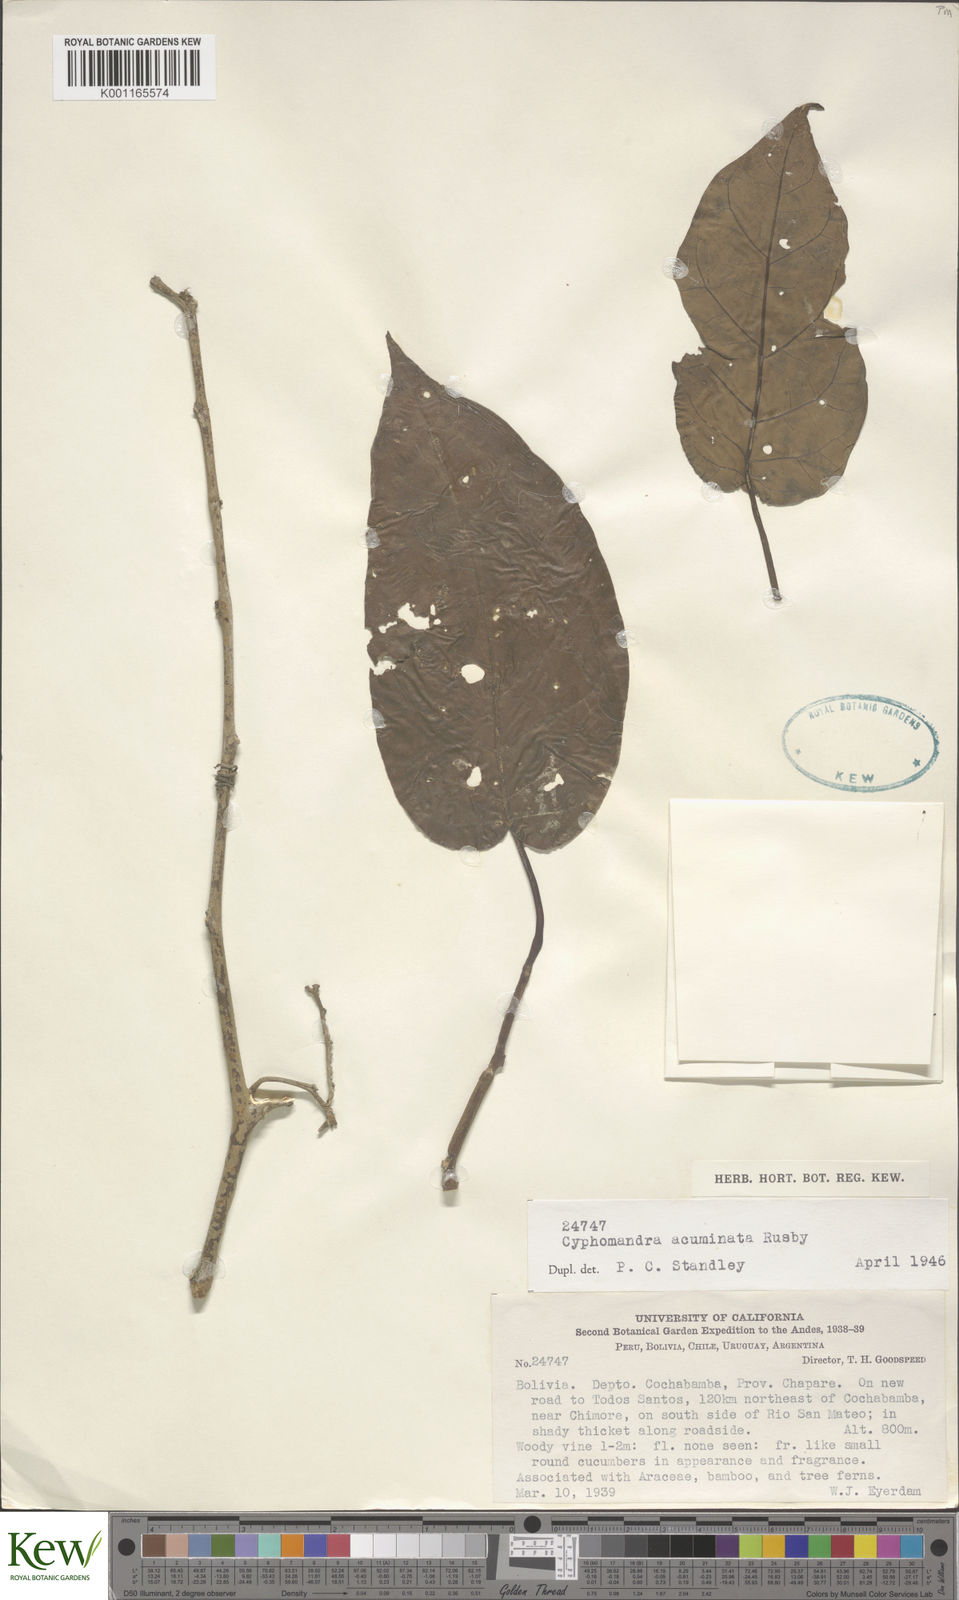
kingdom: Plantae
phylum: Tracheophyta
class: Magnoliopsida
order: Solanales
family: Solanaceae
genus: Solanum
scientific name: Solanum roseum
